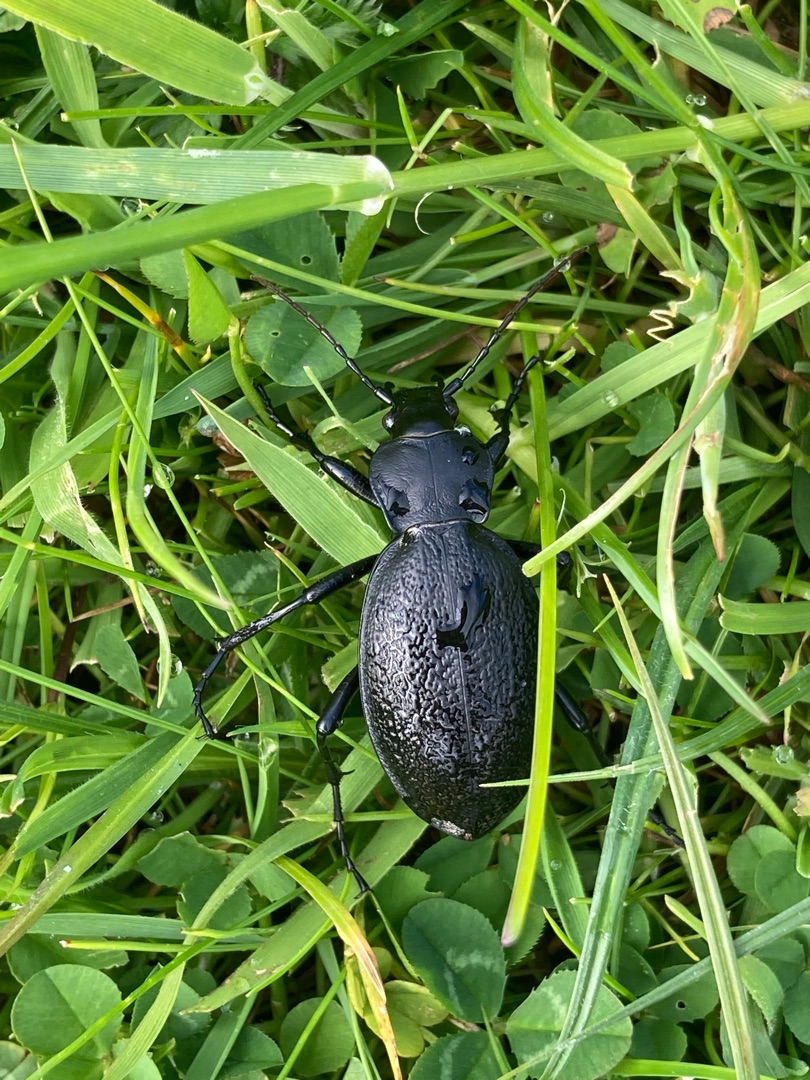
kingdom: Animalia
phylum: Arthropoda
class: Insecta
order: Coleoptera
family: Carabidae
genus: Carabus
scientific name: Carabus coriaceus
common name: Læderløber
